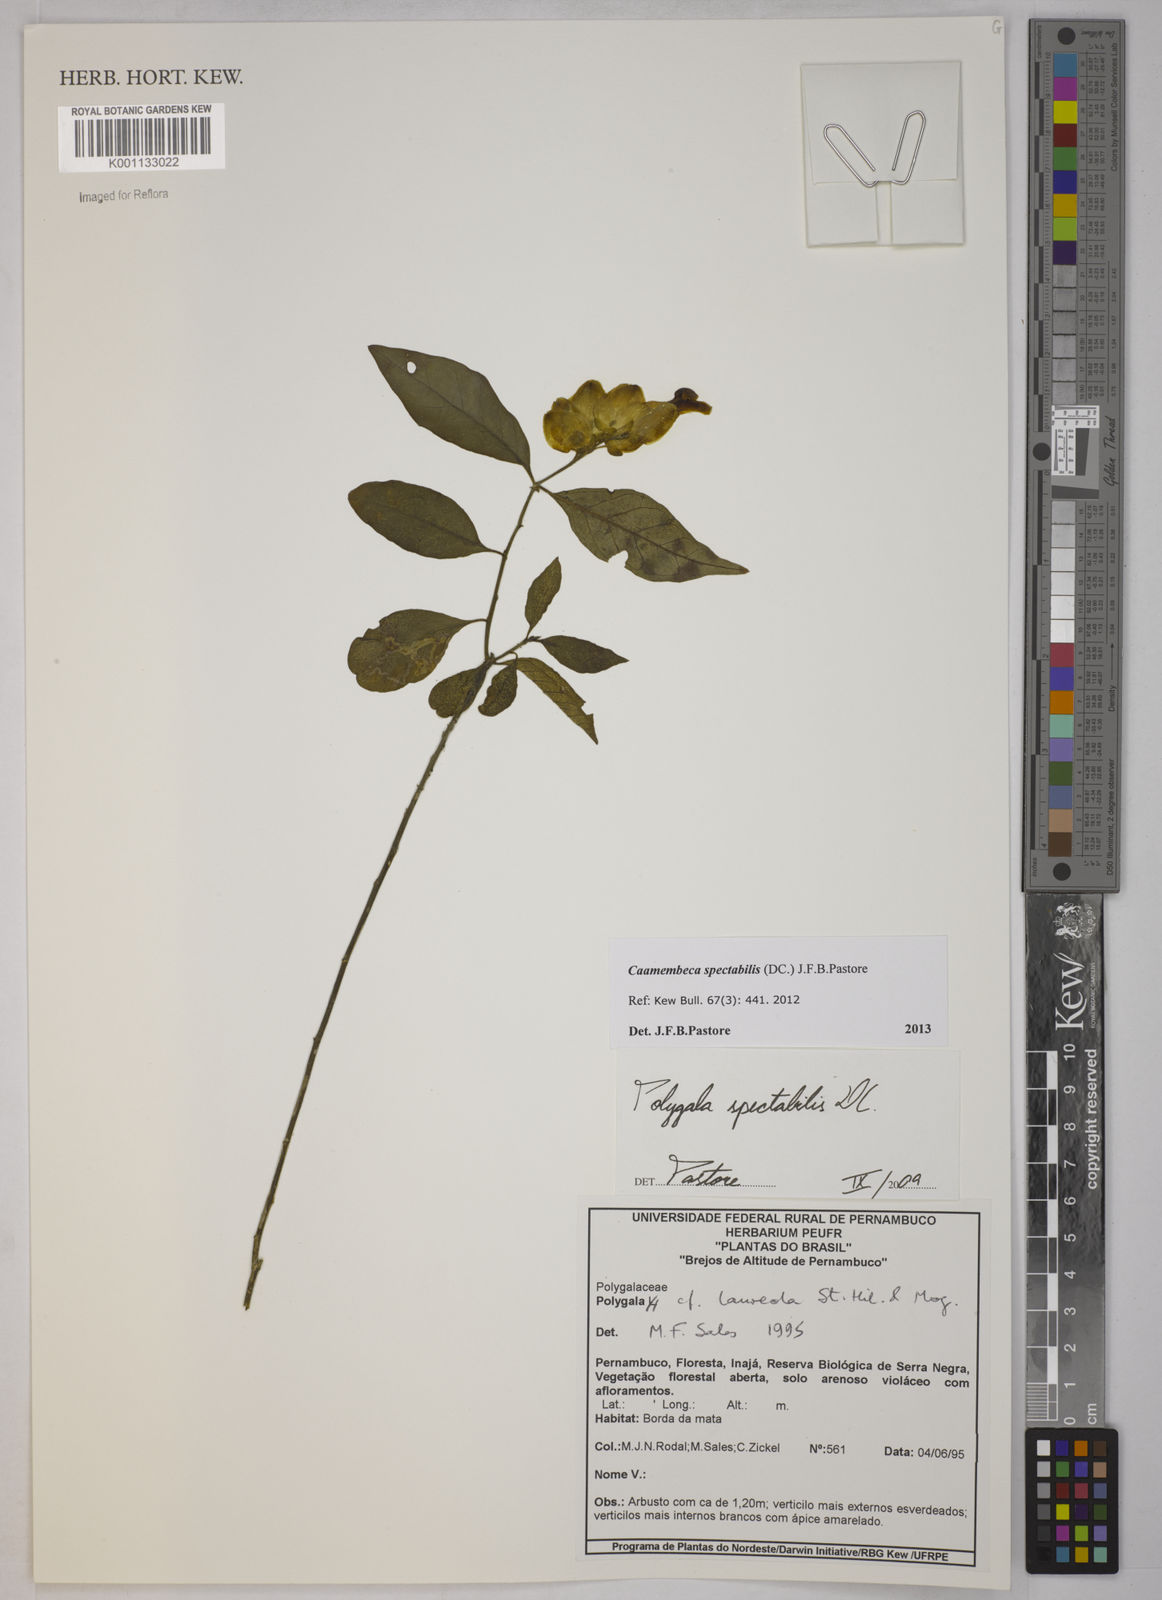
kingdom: Plantae
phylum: Tracheophyta
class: Magnoliopsida
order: Fabales
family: Polygalaceae
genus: Polygala
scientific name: Polygala
